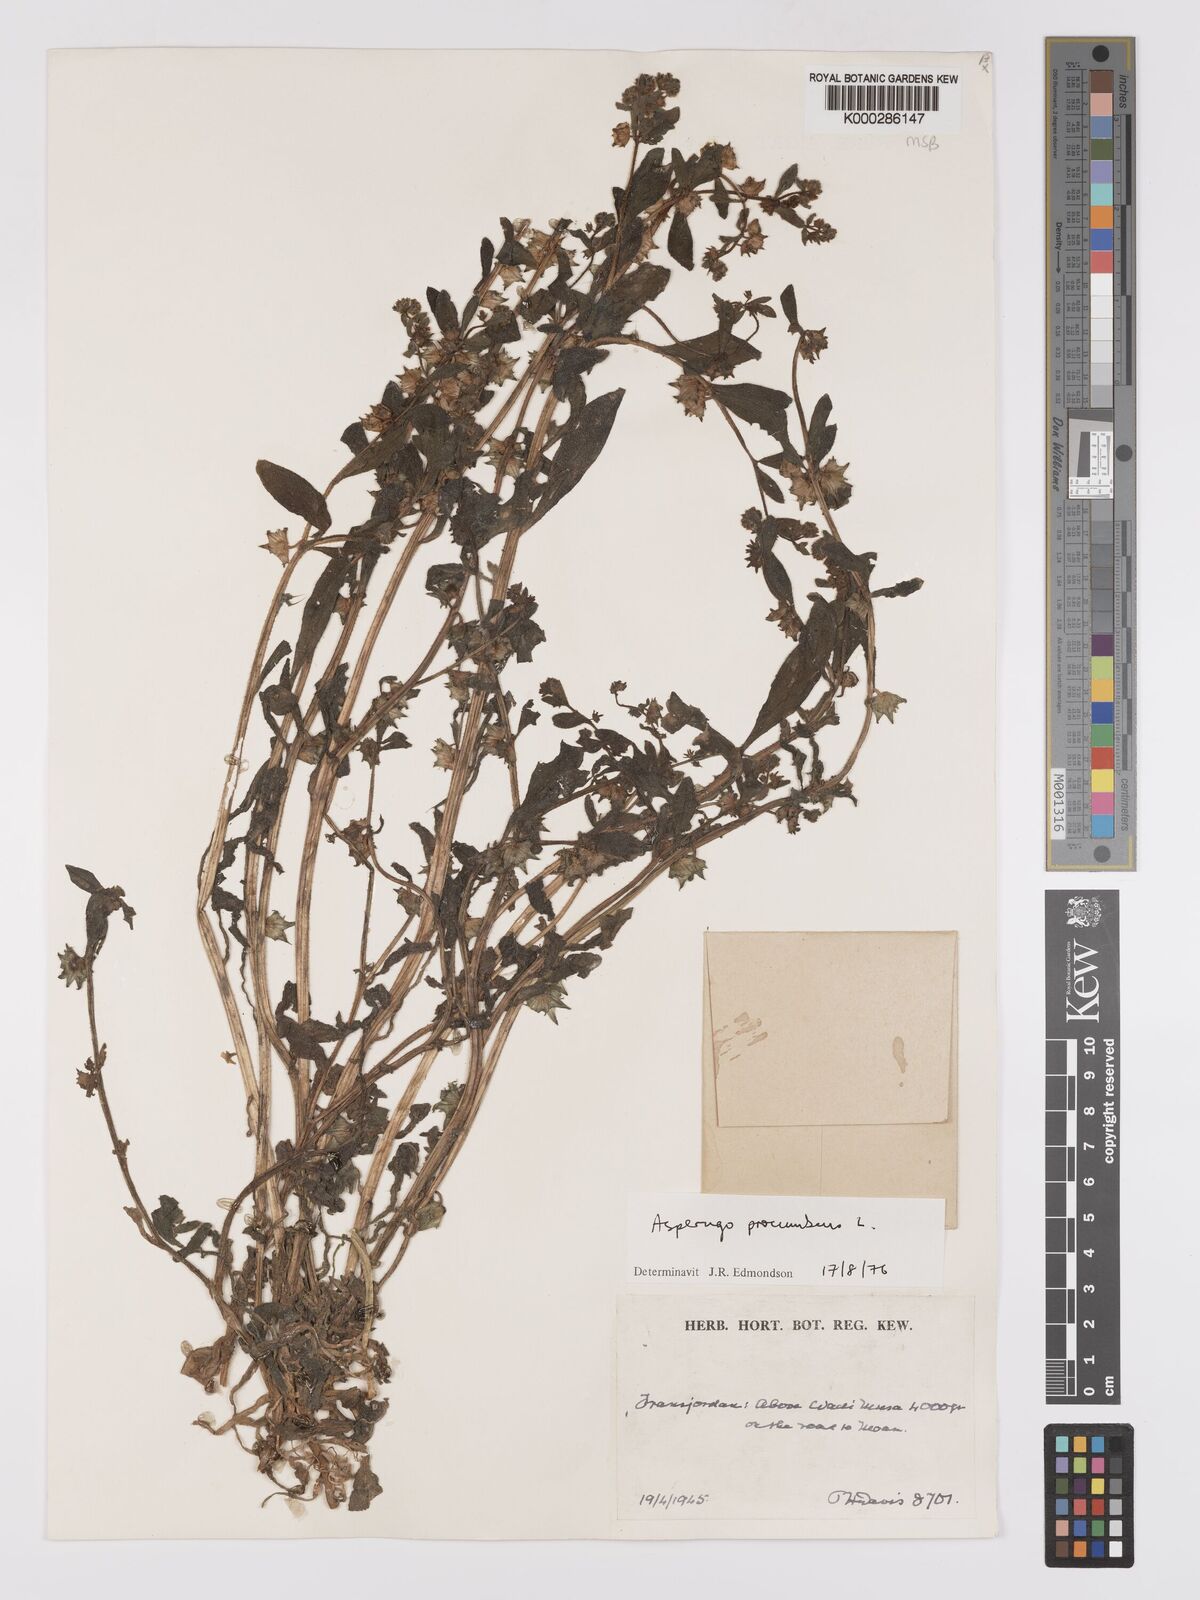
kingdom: Plantae
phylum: Tracheophyta
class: Magnoliopsida
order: Boraginales
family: Boraginaceae
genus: Asperugo
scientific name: Asperugo procumbens
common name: Madwort
